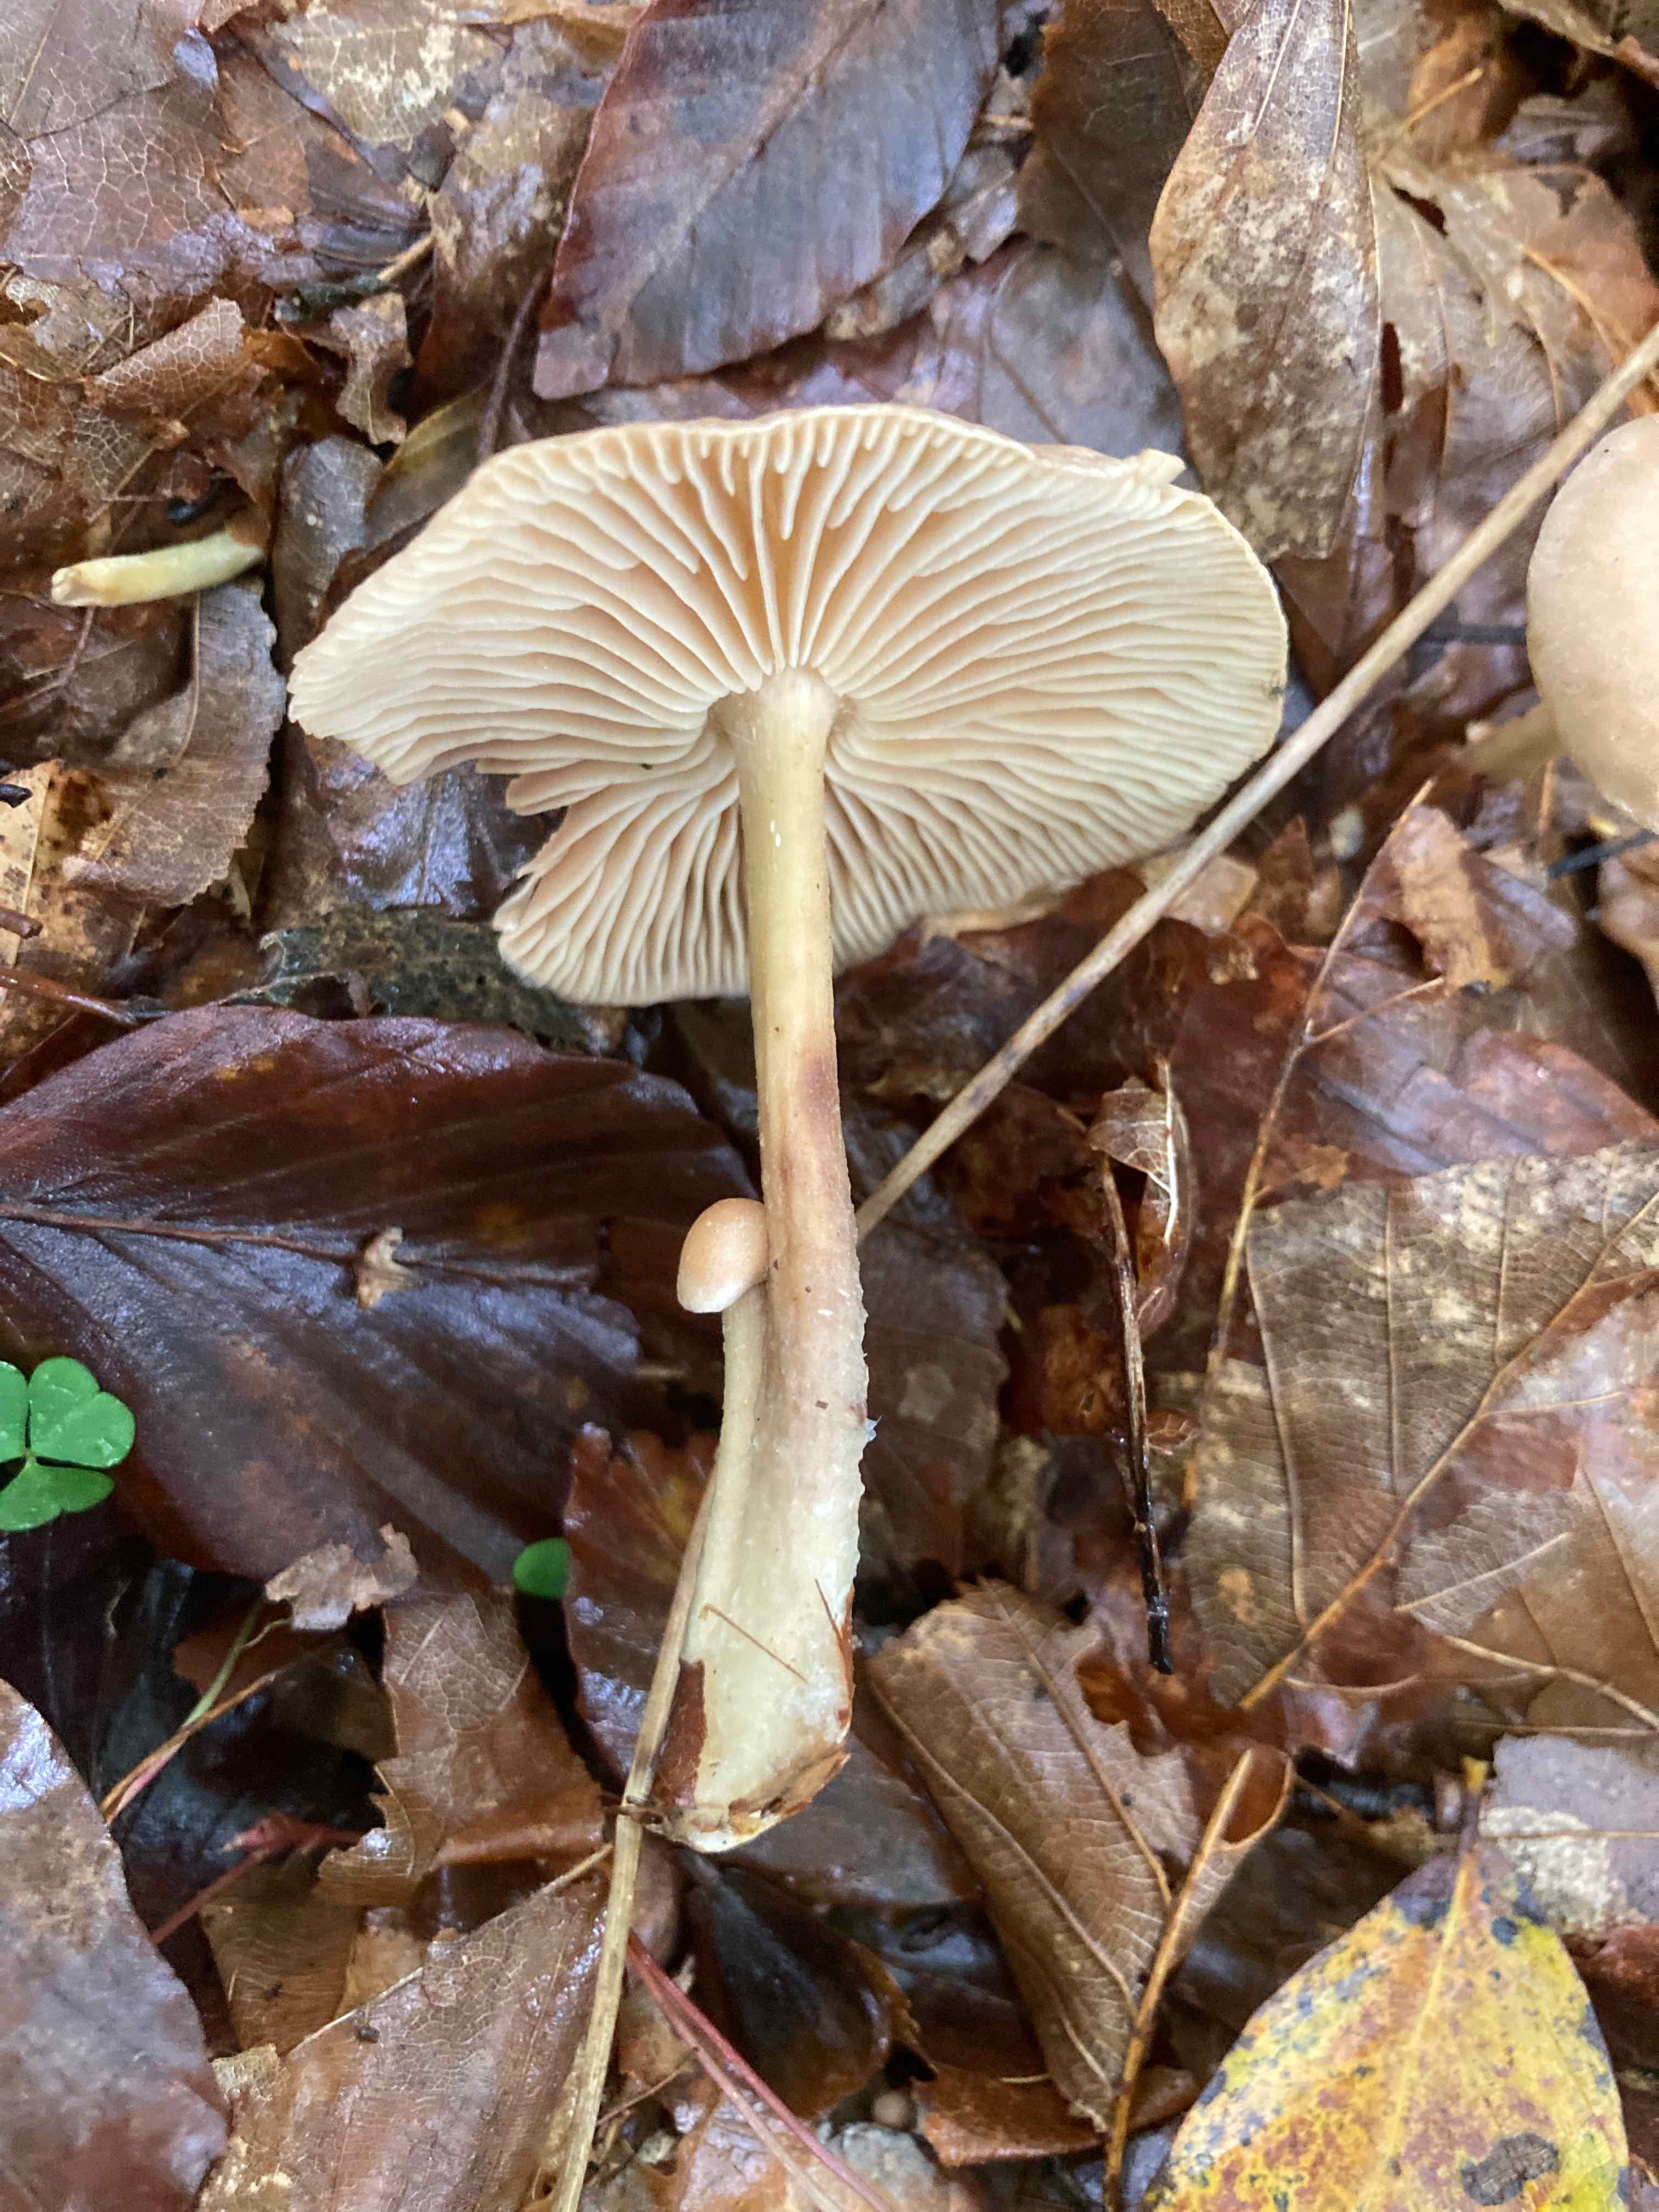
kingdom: Fungi
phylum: Basidiomycota
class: Agaricomycetes
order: Agaricales
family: Omphalotaceae
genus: Collybiopsis
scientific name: Collybiopsis peronata
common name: bestøvlet fladhat
